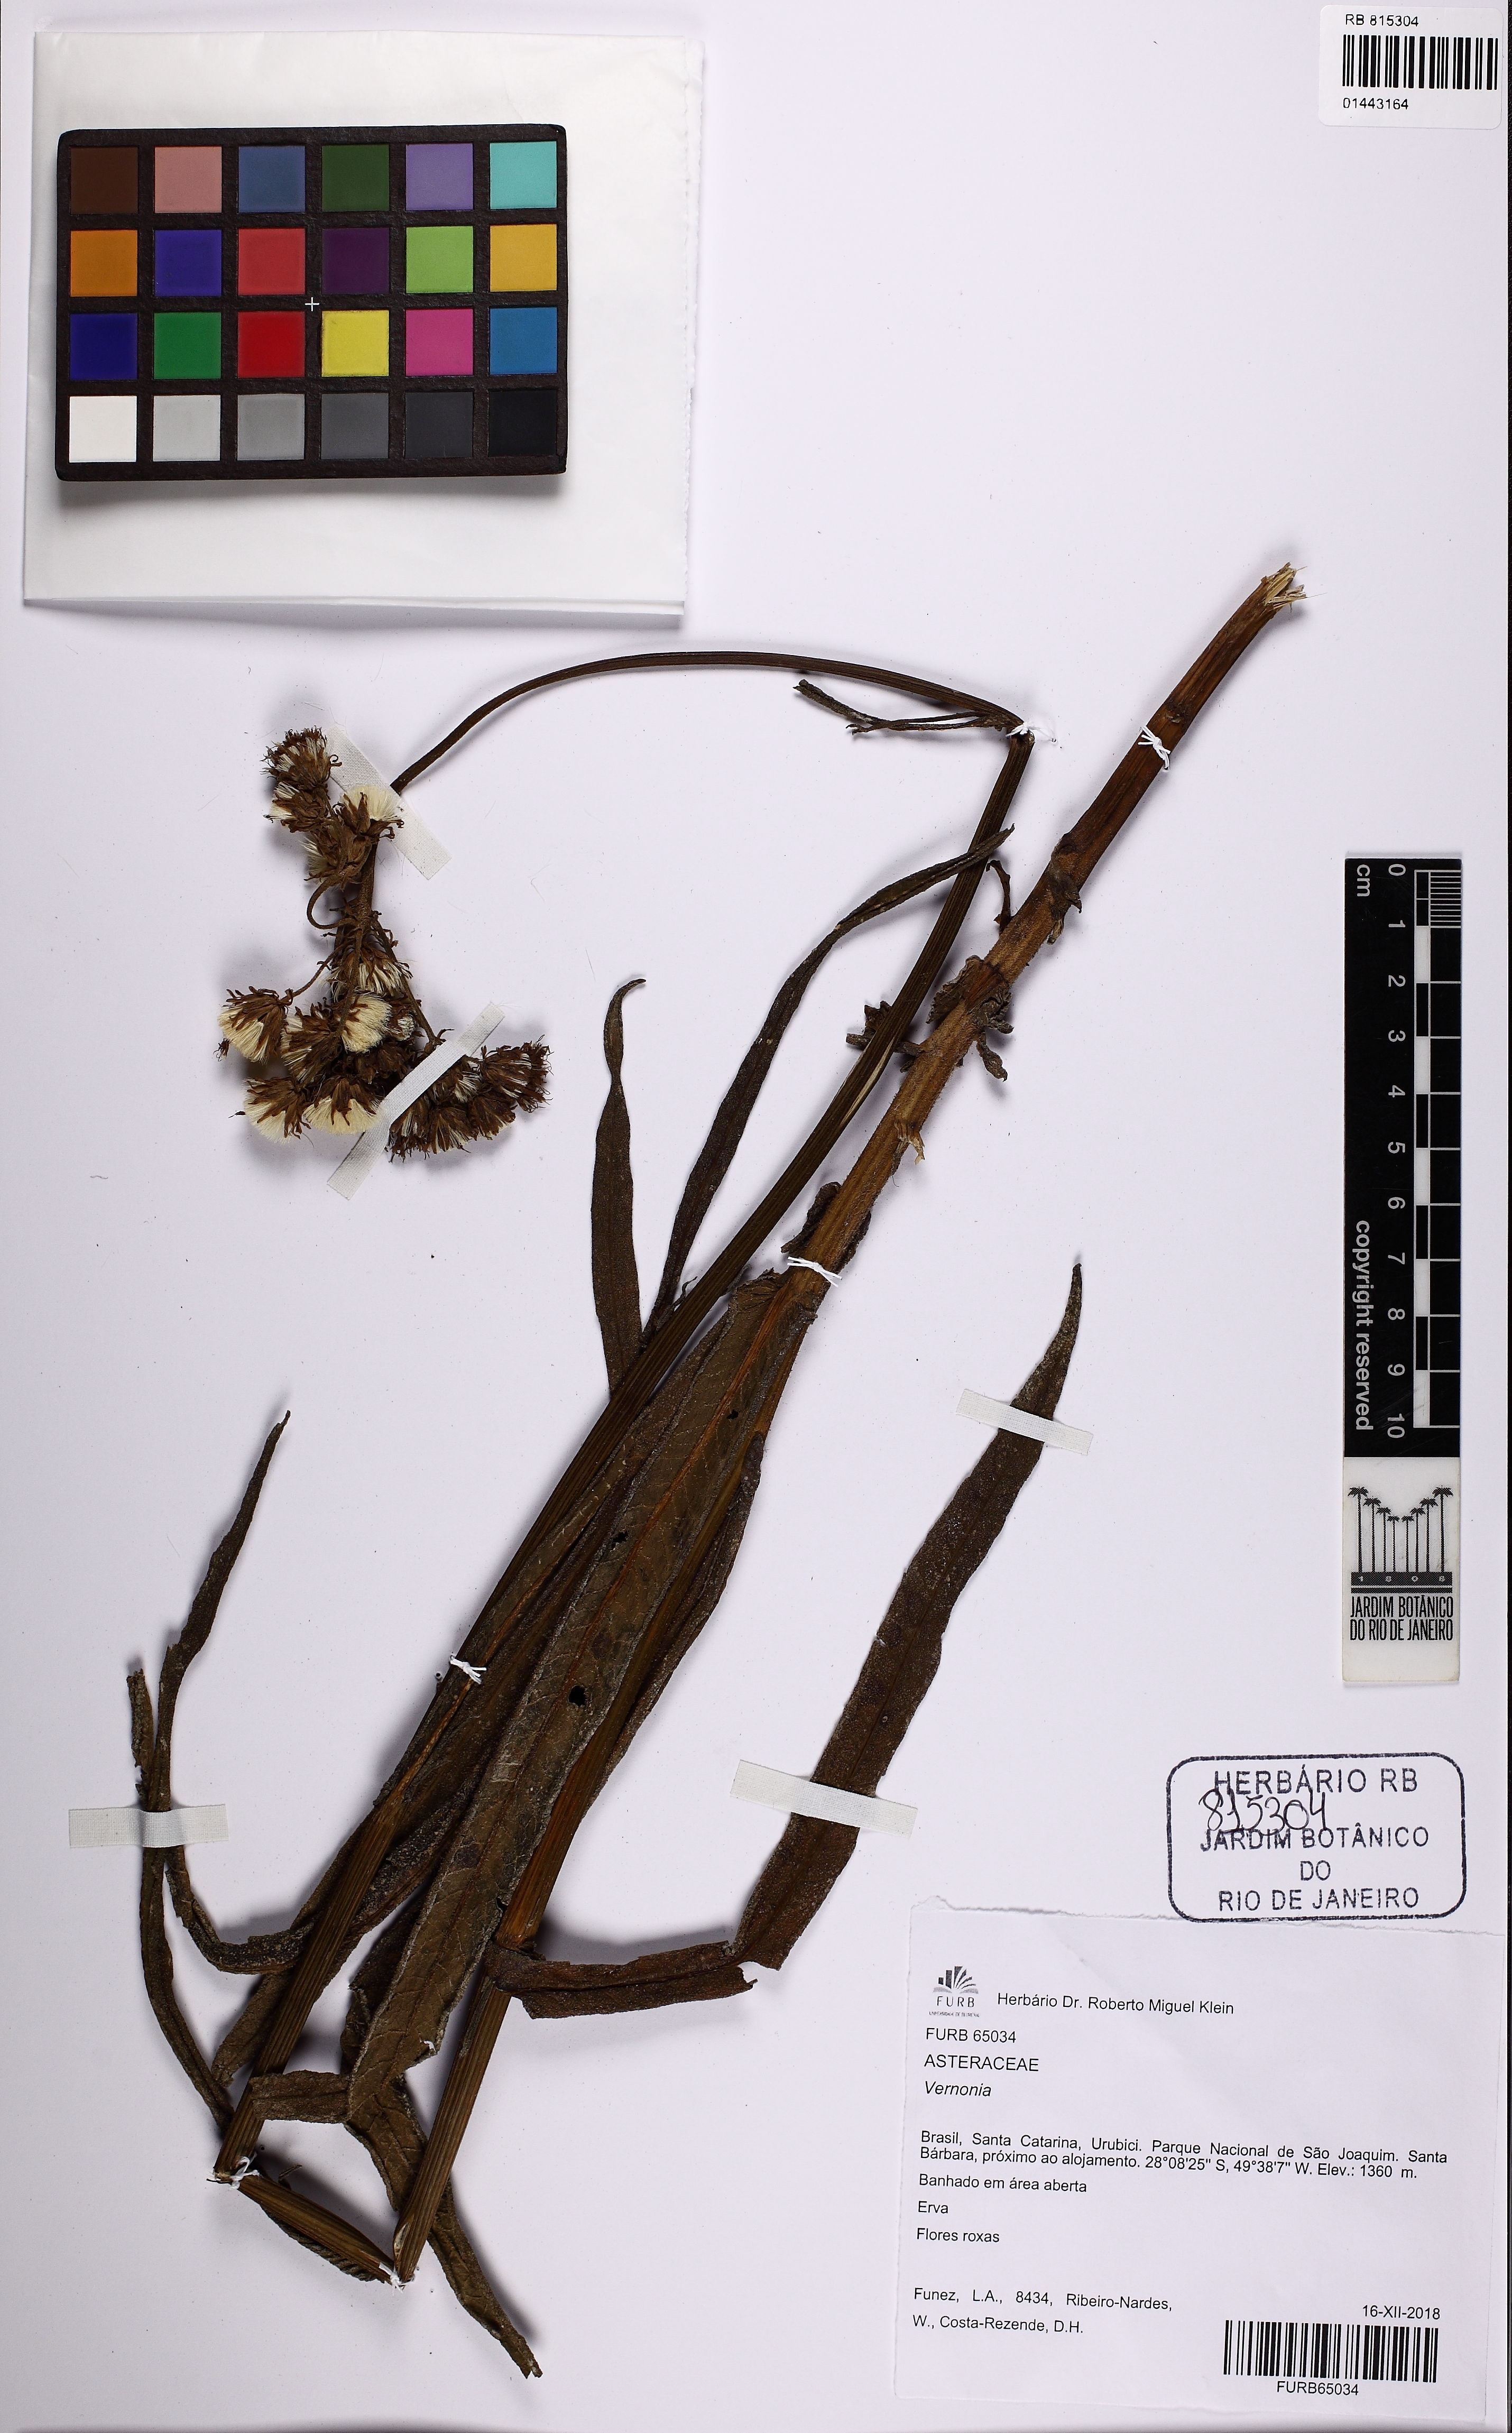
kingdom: Plantae
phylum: Tracheophyta
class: Magnoliopsida
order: Asterales
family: Asteraceae
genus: Vernonia
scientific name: Vernonia
